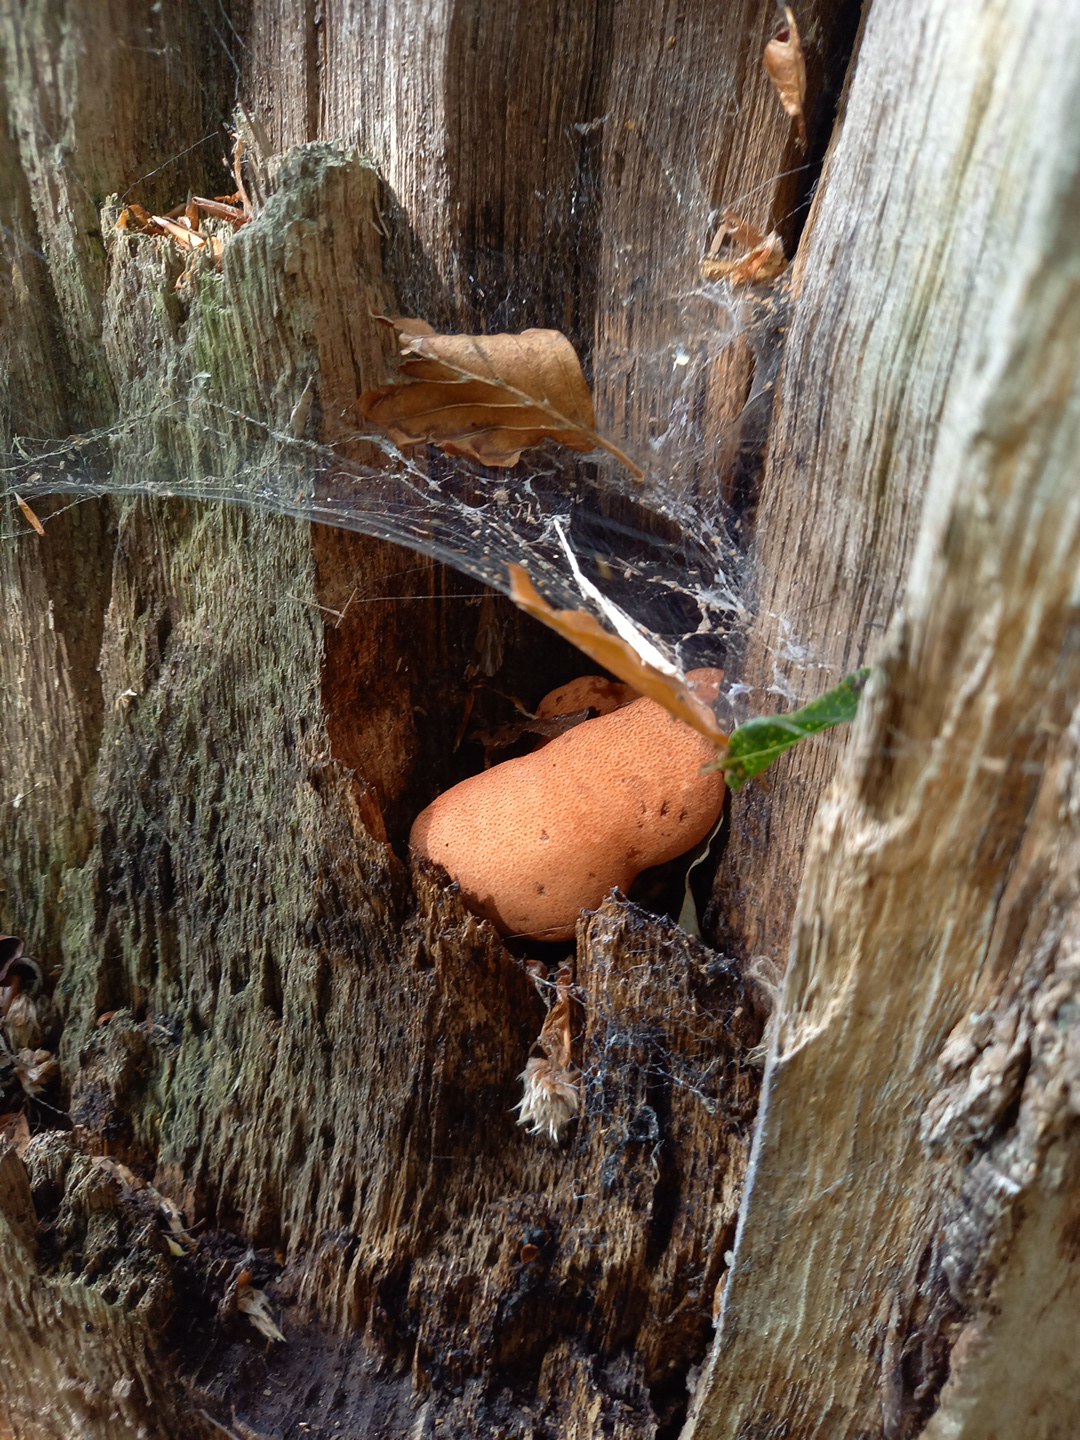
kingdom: Fungi
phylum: Basidiomycota
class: Agaricomycetes
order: Agaricales
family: Fistulinaceae
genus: Fistulina
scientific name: Fistulina hepatica
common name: oksetunge
